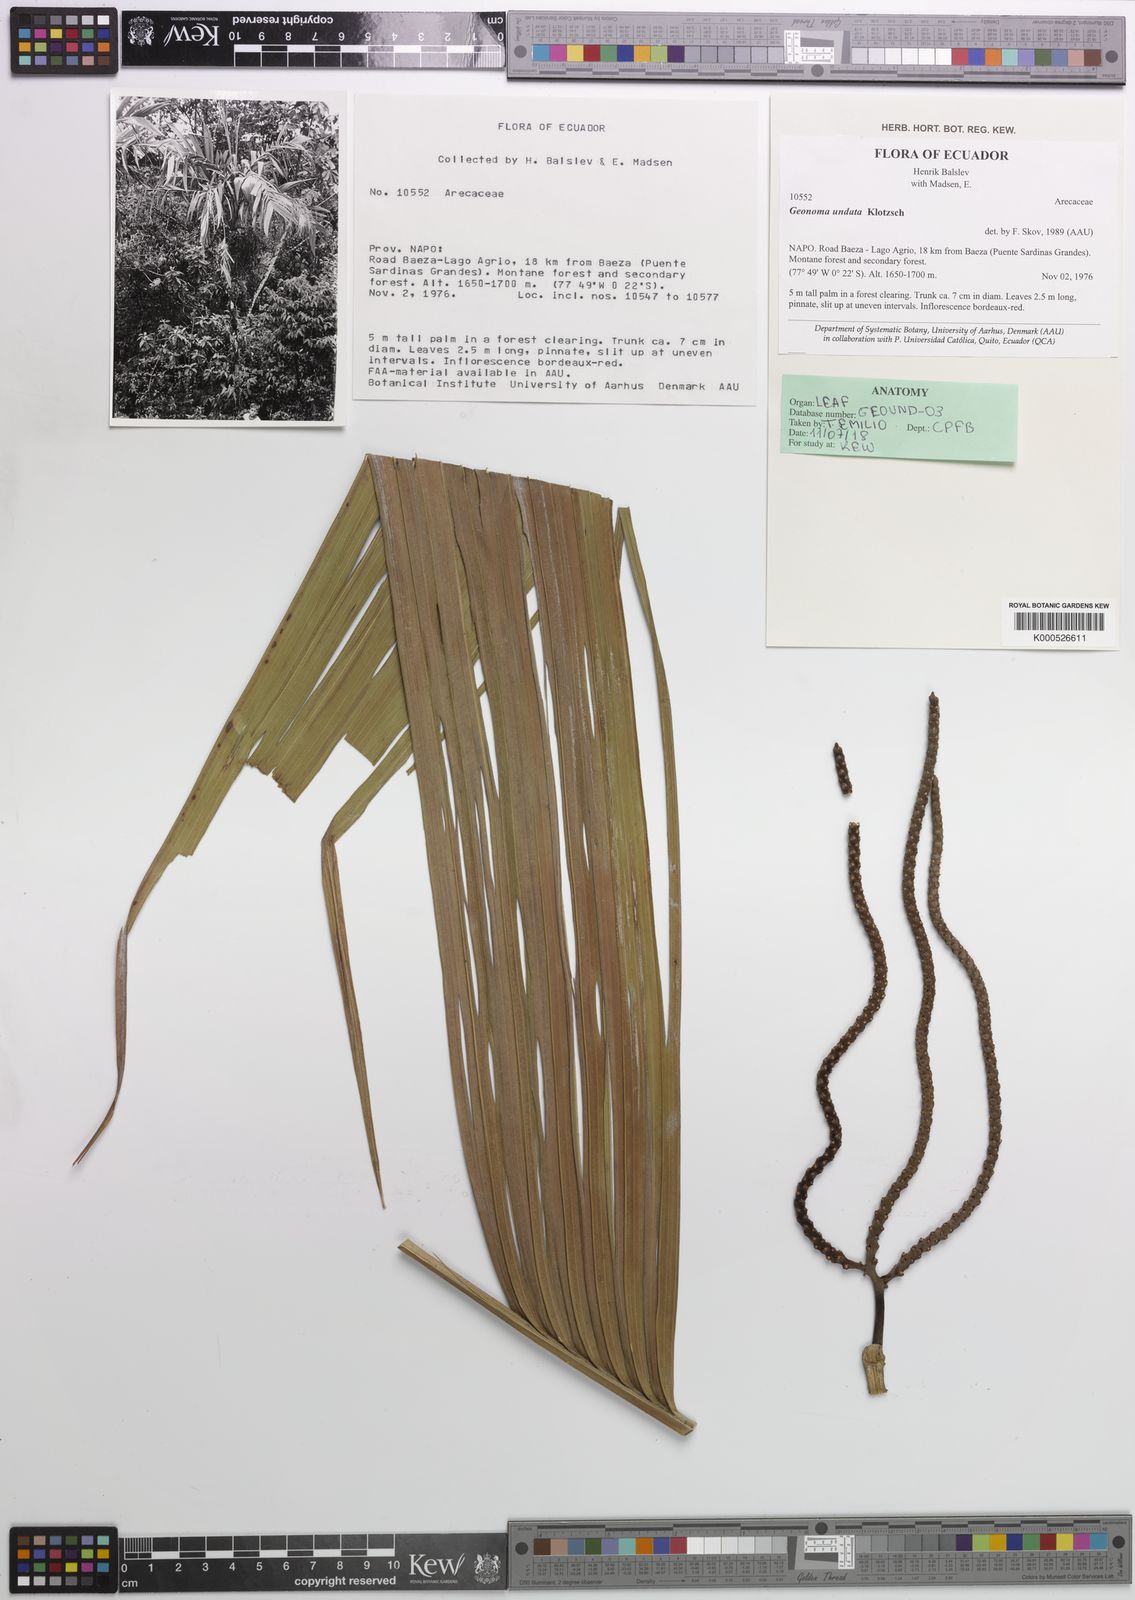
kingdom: Plantae
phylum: Tracheophyta
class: Liliopsida
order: Arecales
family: Arecaceae
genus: Geonoma
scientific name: Geonoma undata
